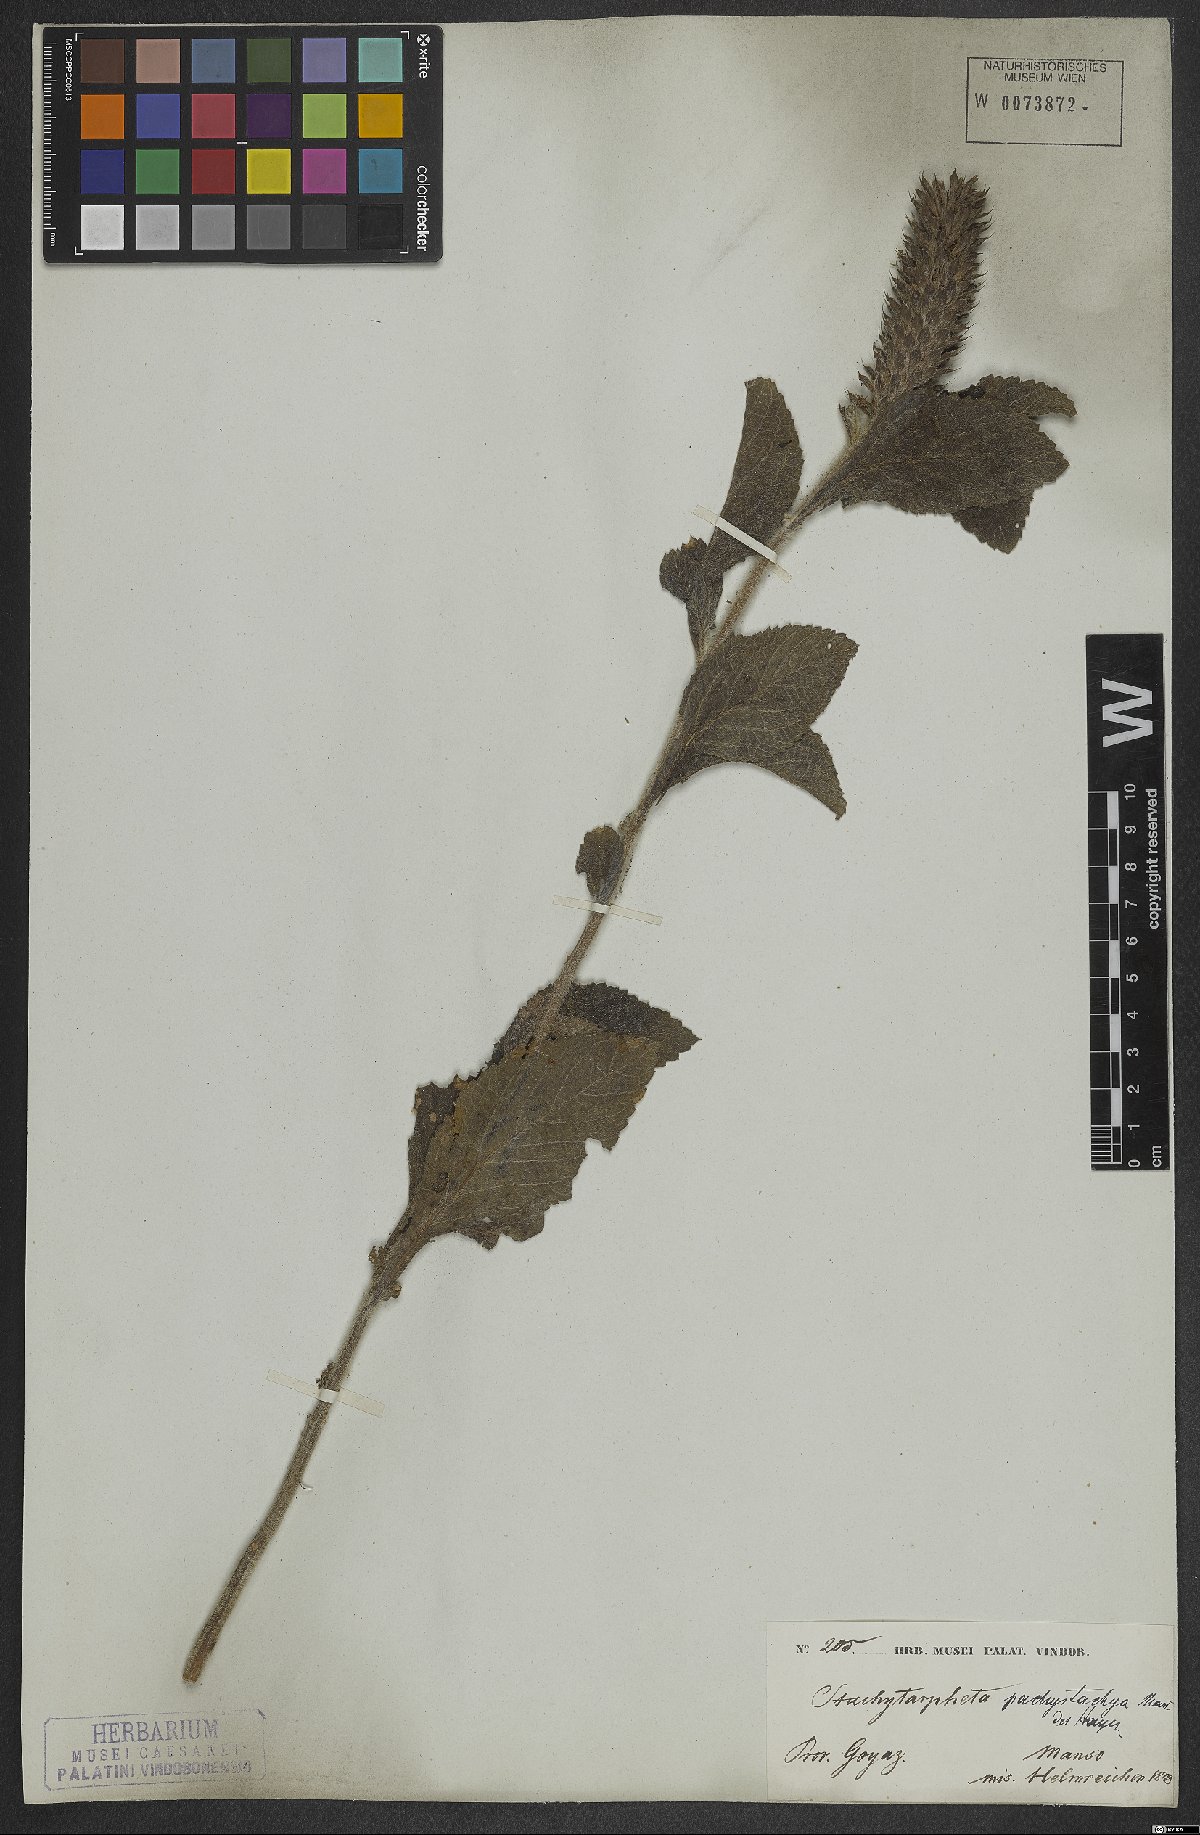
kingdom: Plantae
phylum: Tracheophyta
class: Magnoliopsida
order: Lamiales
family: Verbenaceae
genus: Stachytarpheta
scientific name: Stachytarpheta pachystachya
